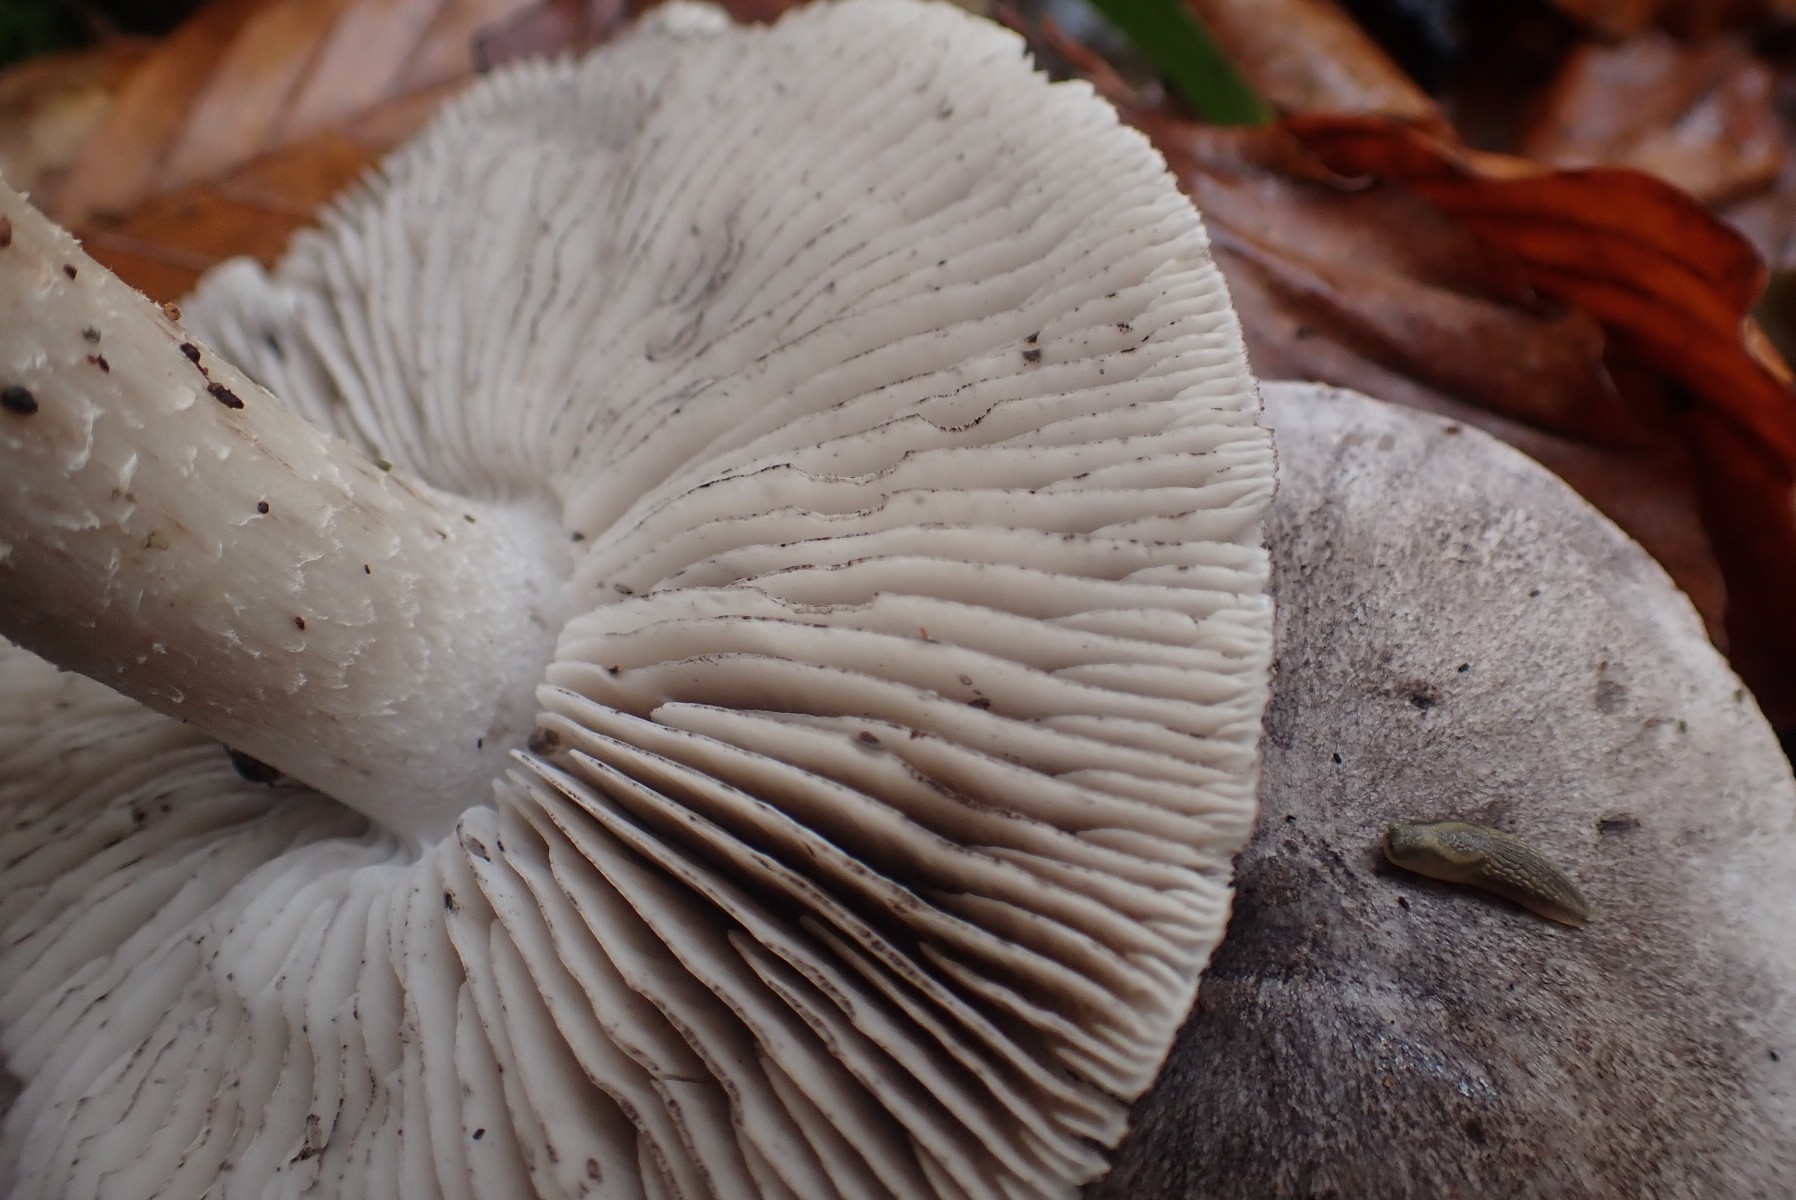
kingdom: Fungi
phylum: Basidiomycota
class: Agaricomycetes
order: Agaricales
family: Tricholomataceae
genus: Tricholoma
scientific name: Tricholoma sciodes
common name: stribet ridderhat
